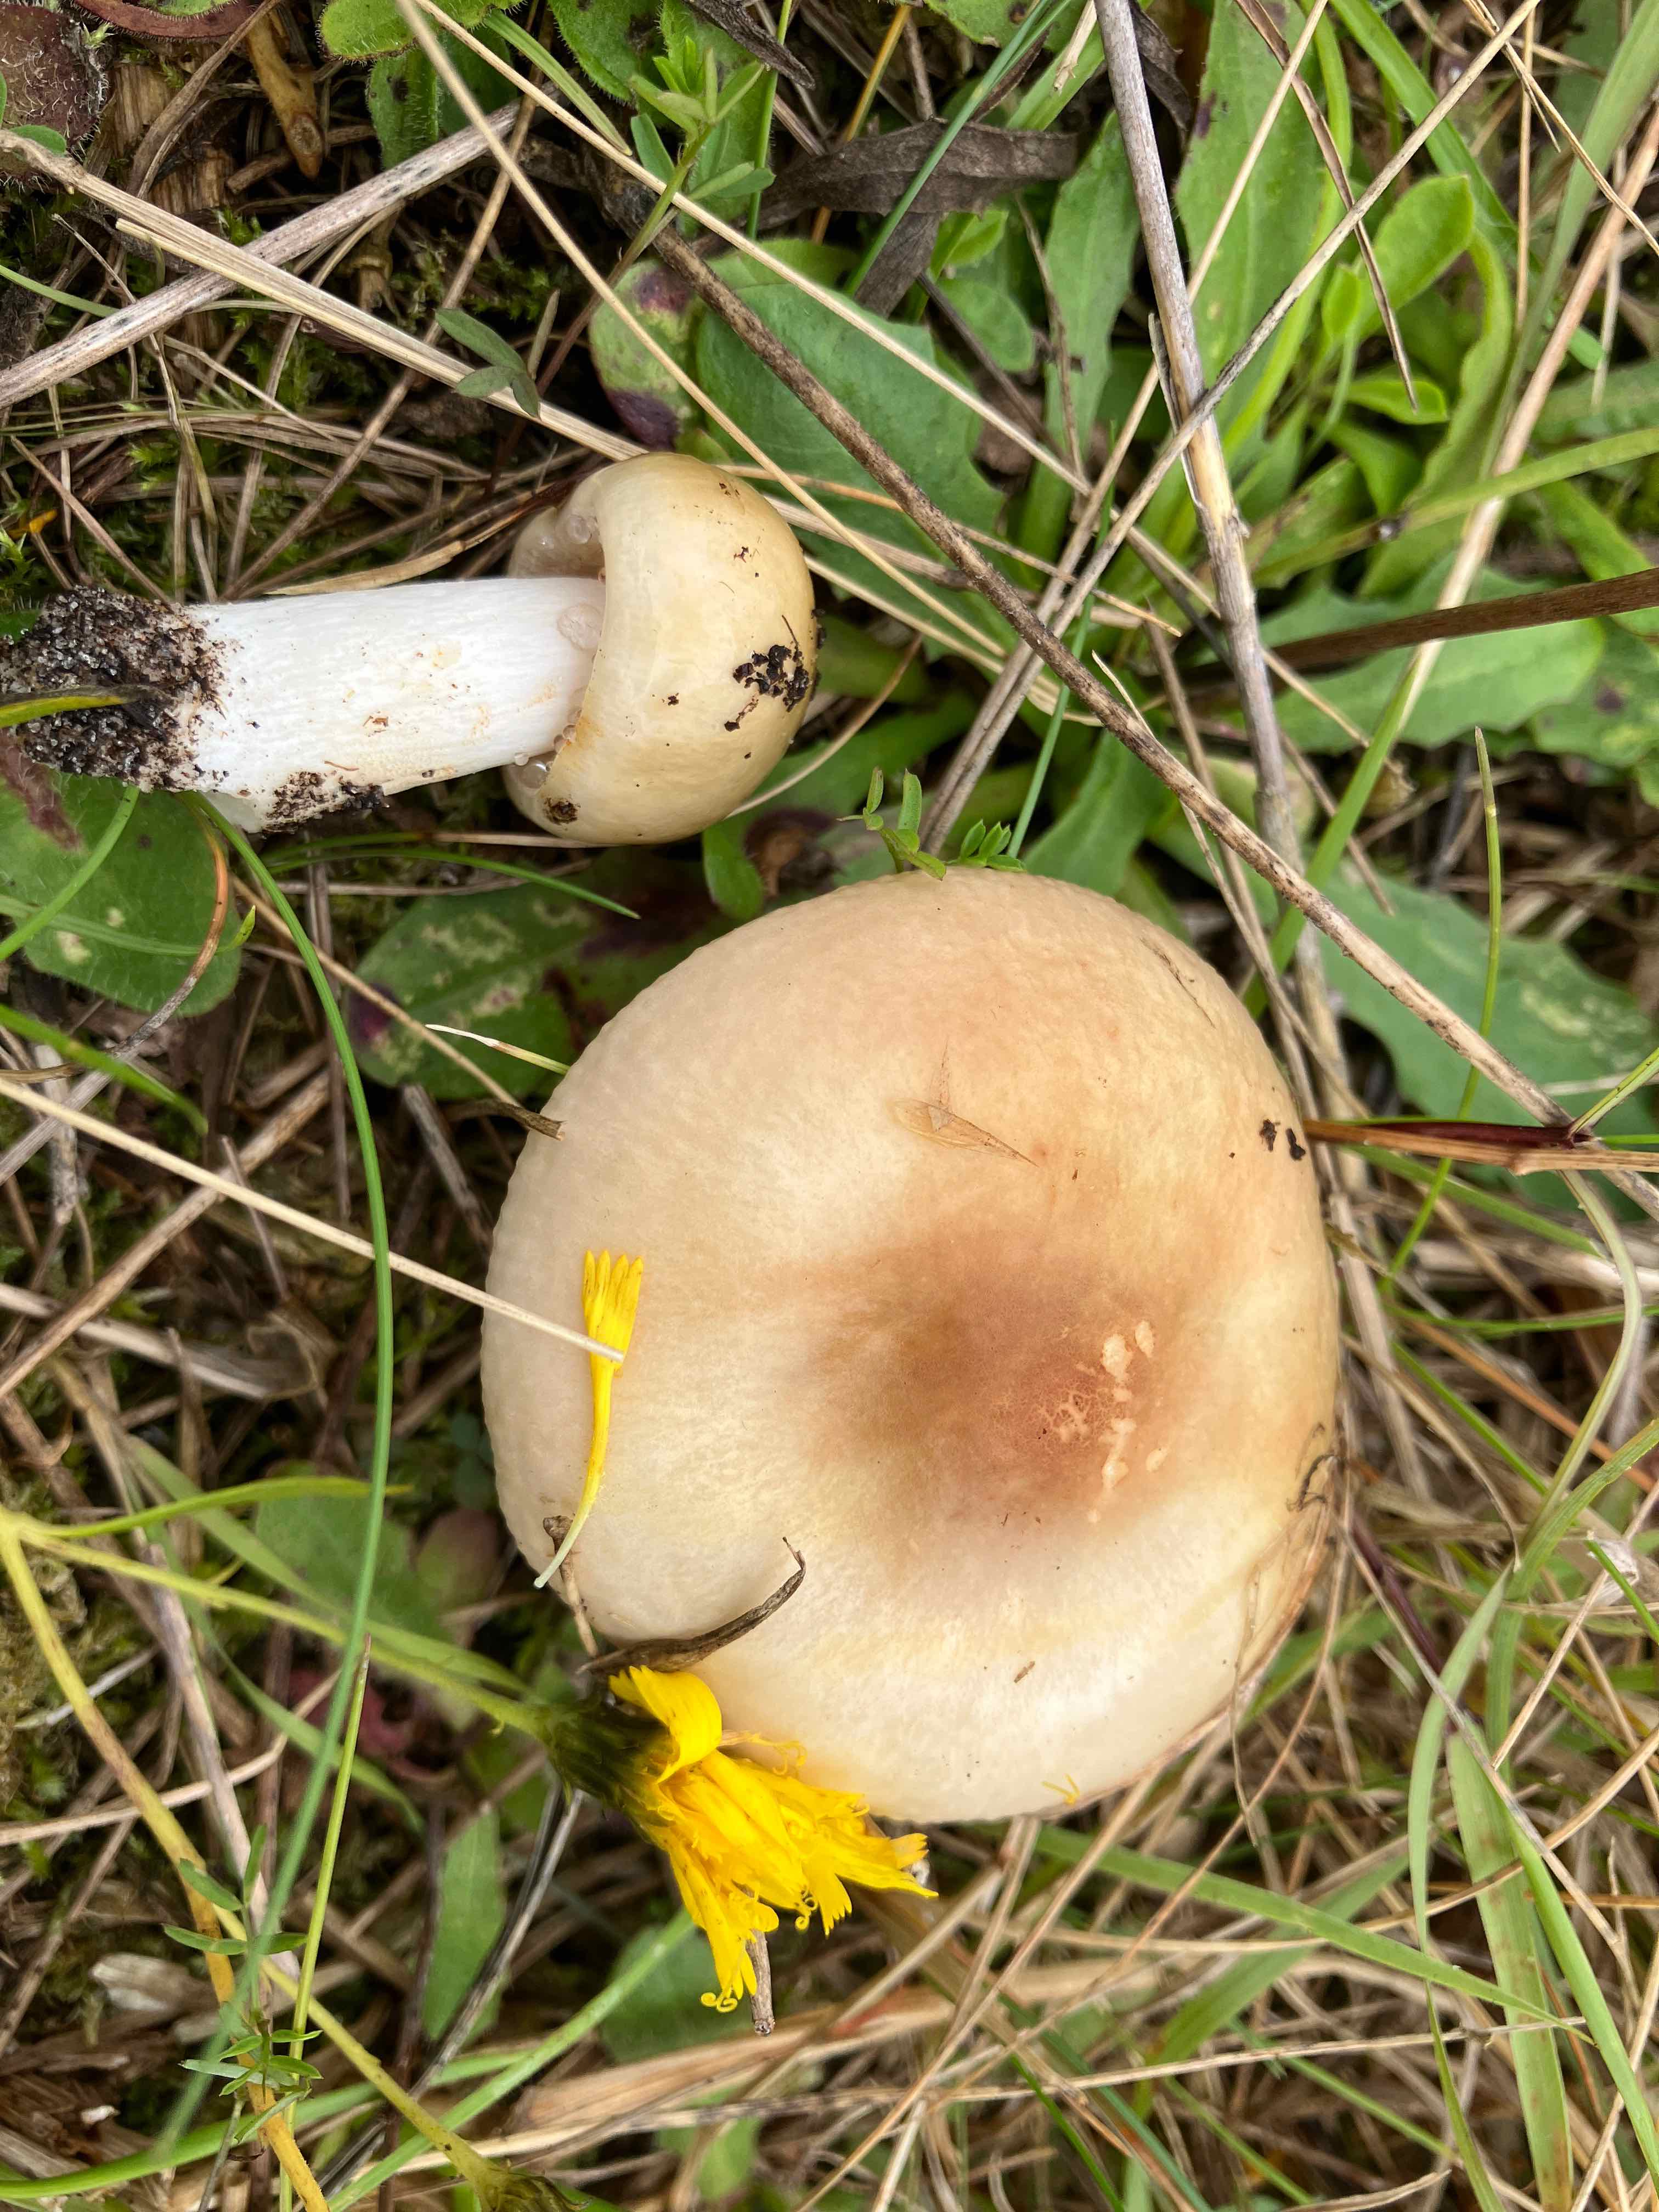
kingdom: Fungi
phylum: Basidiomycota
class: Agaricomycetes
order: Russulales
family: Russulaceae
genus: Russula
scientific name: Russula versicolor
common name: foranderlig skørhat
